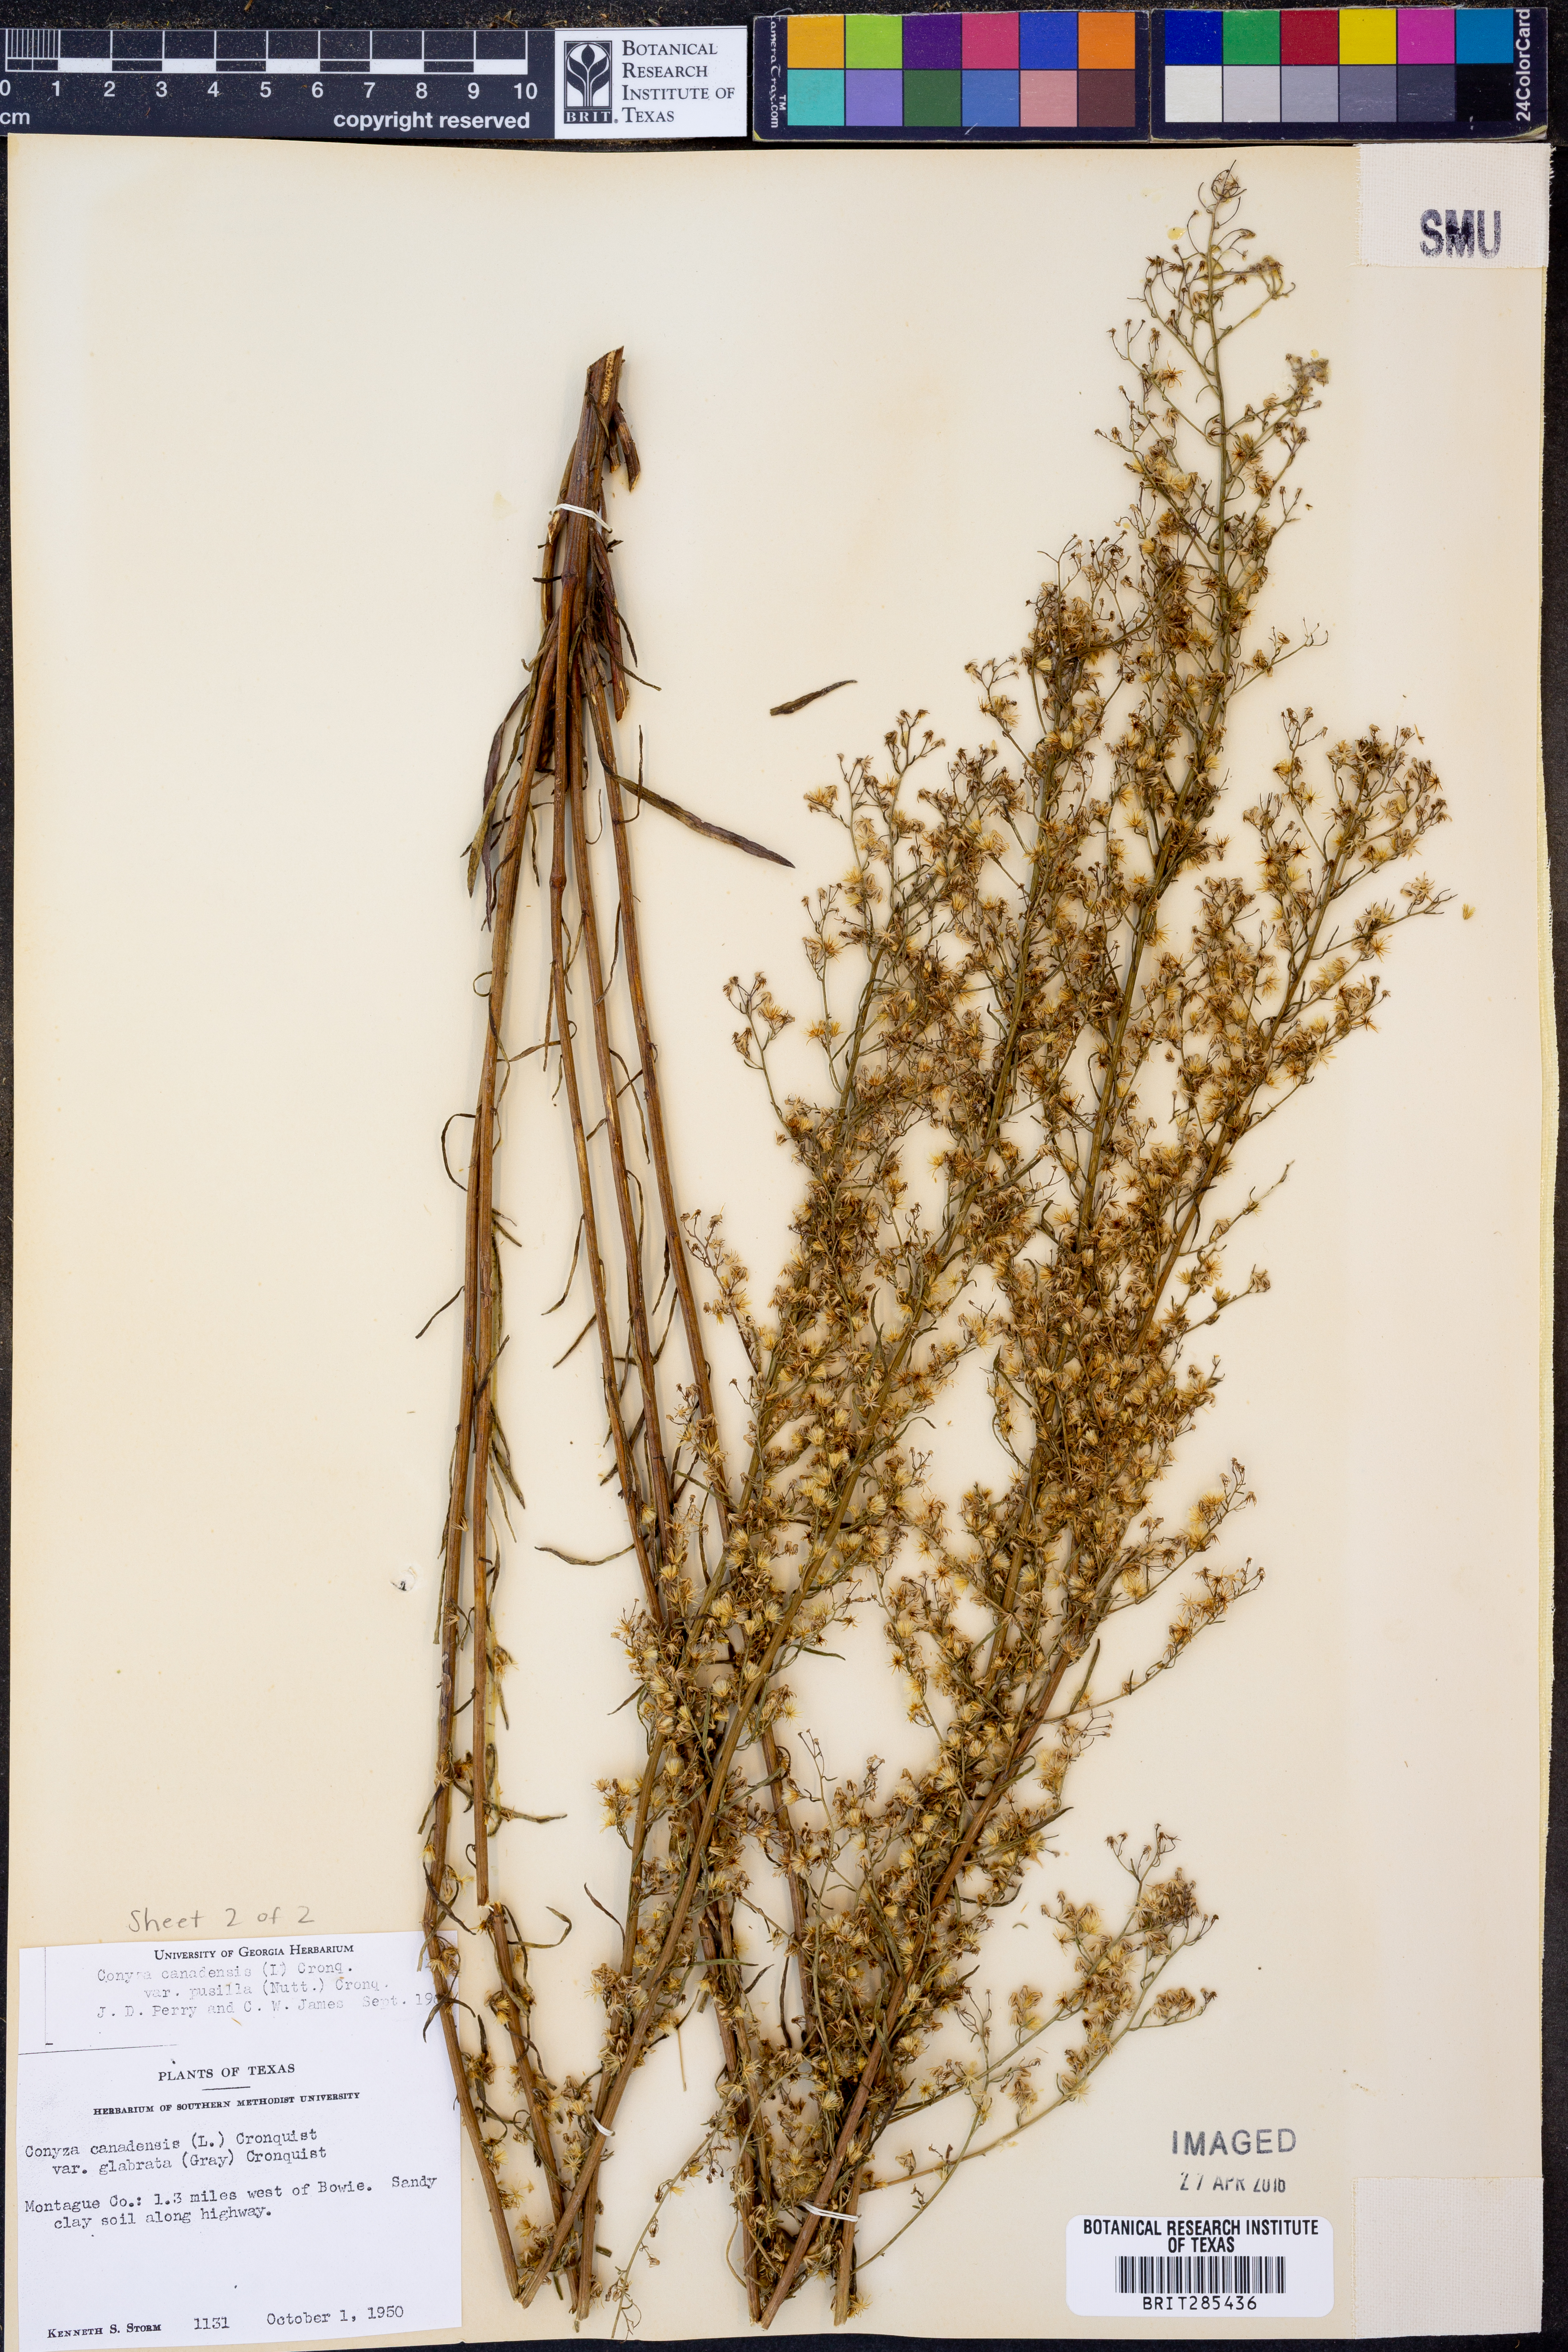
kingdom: Plantae
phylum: Tracheophyta
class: Magnoliopsida
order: Asterales
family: Asteraceae
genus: Erigeron
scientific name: Erigeron canadensis
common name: Canadian fleabane
